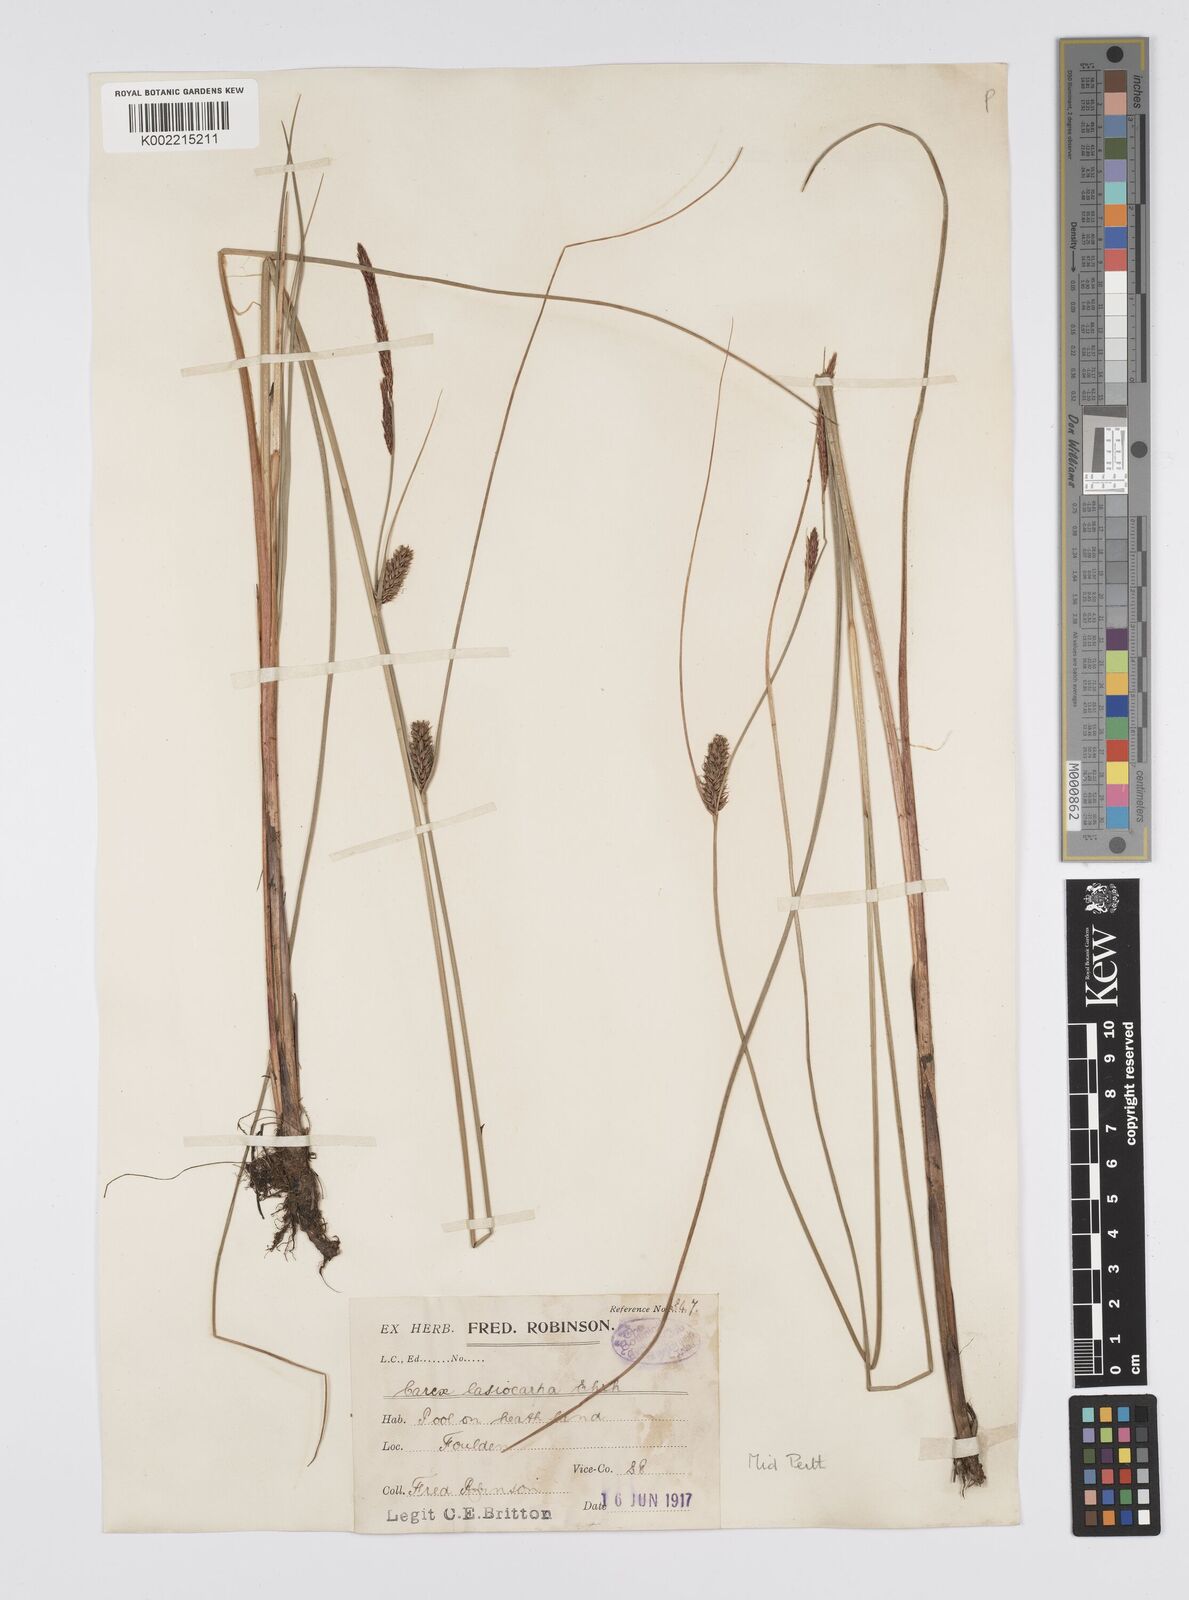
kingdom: Plantae
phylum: Tracheophyta
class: Liliopsida
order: Poales
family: Cyperaceae
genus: Carex
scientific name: Carex lasiocarpa
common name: Slender sedge
